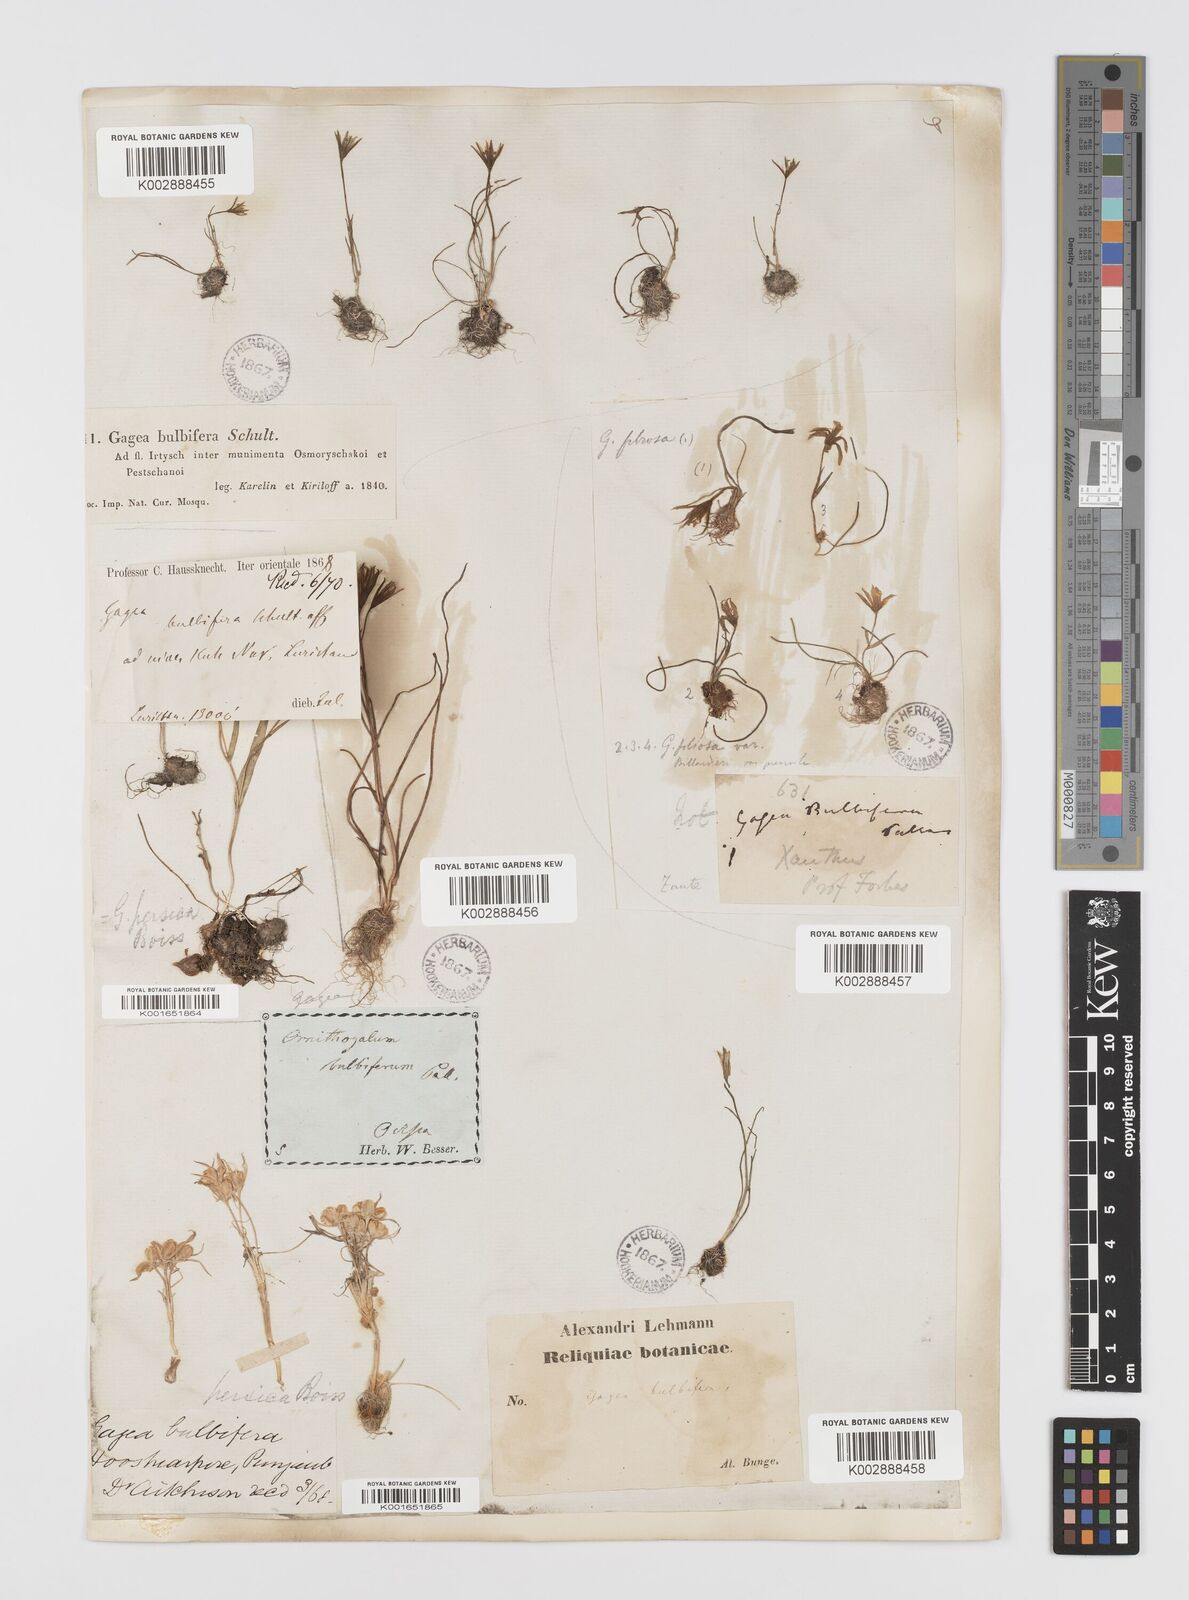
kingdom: Plantae
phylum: Tracheophyta
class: Liliopsida
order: Liliales
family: Liliaceae
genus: Gagea
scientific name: Gagea bulbifera
